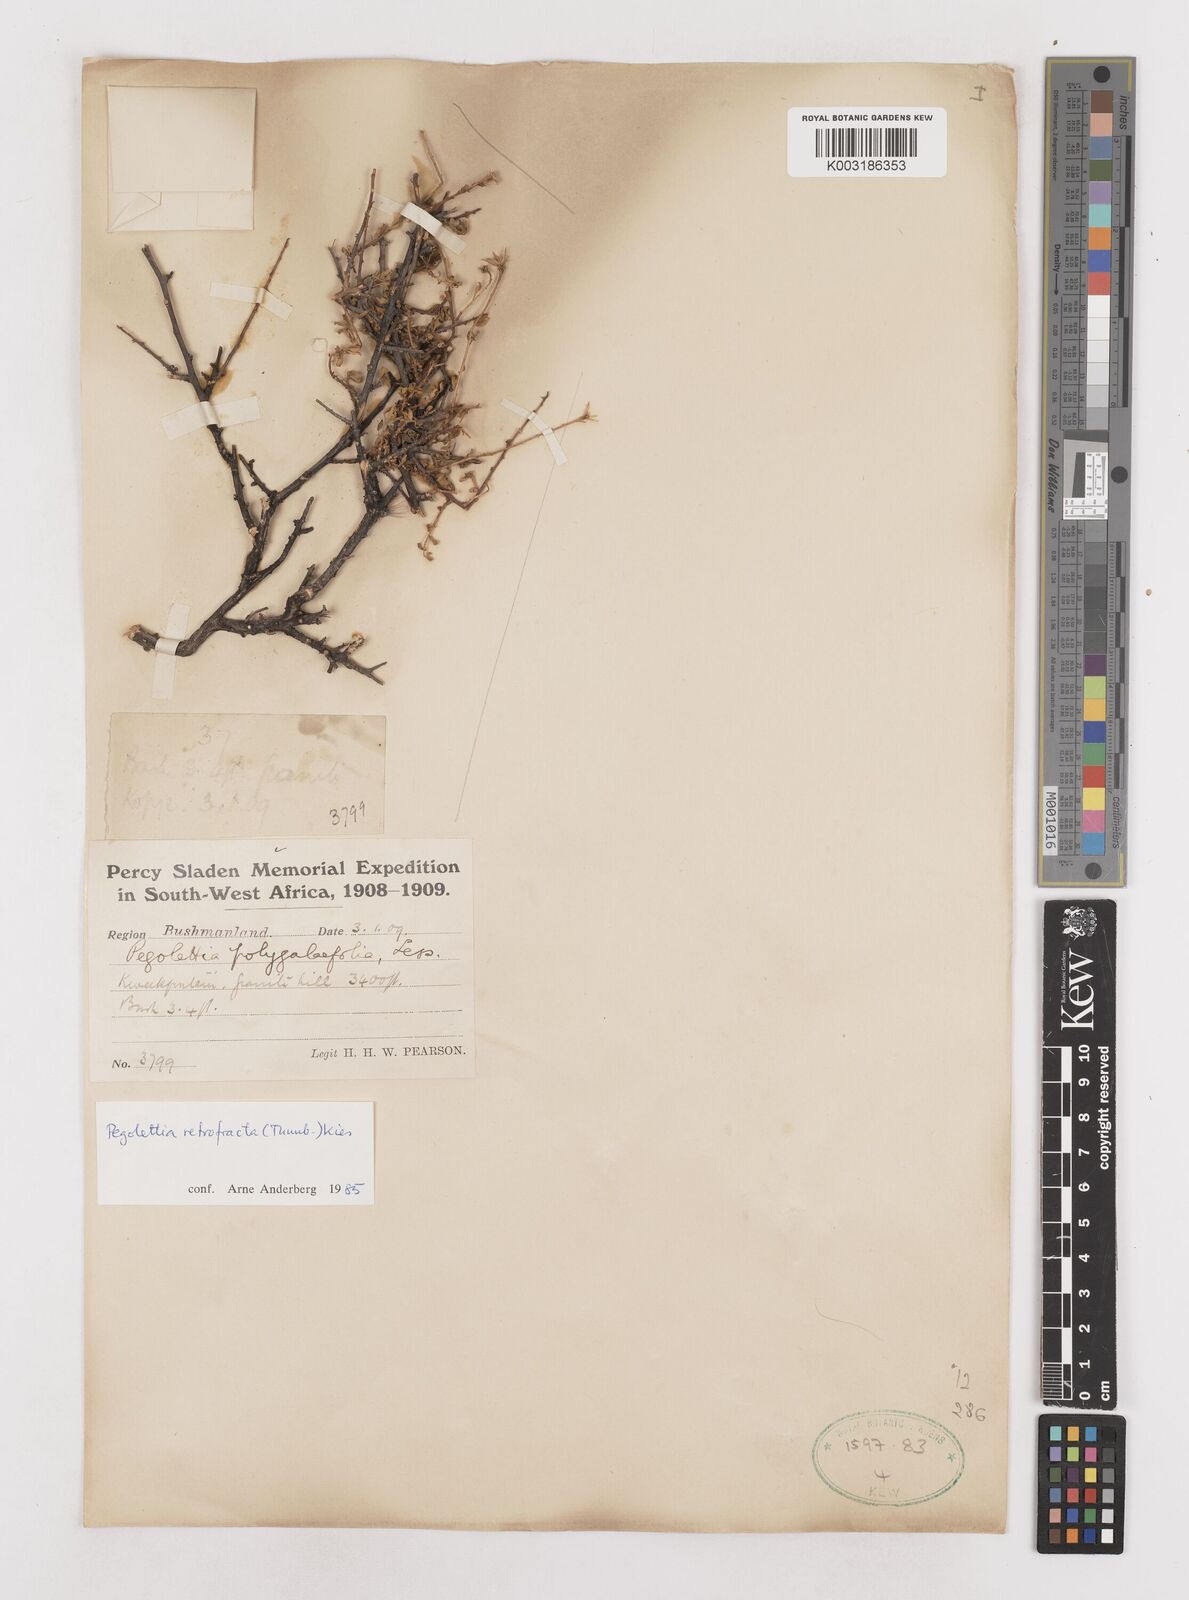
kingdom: Plantae
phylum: Tracheophyta
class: Magnoliopsida
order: Asterales
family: Asteraceae
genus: Pegolettia
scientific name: Pegolettia retrofracta
